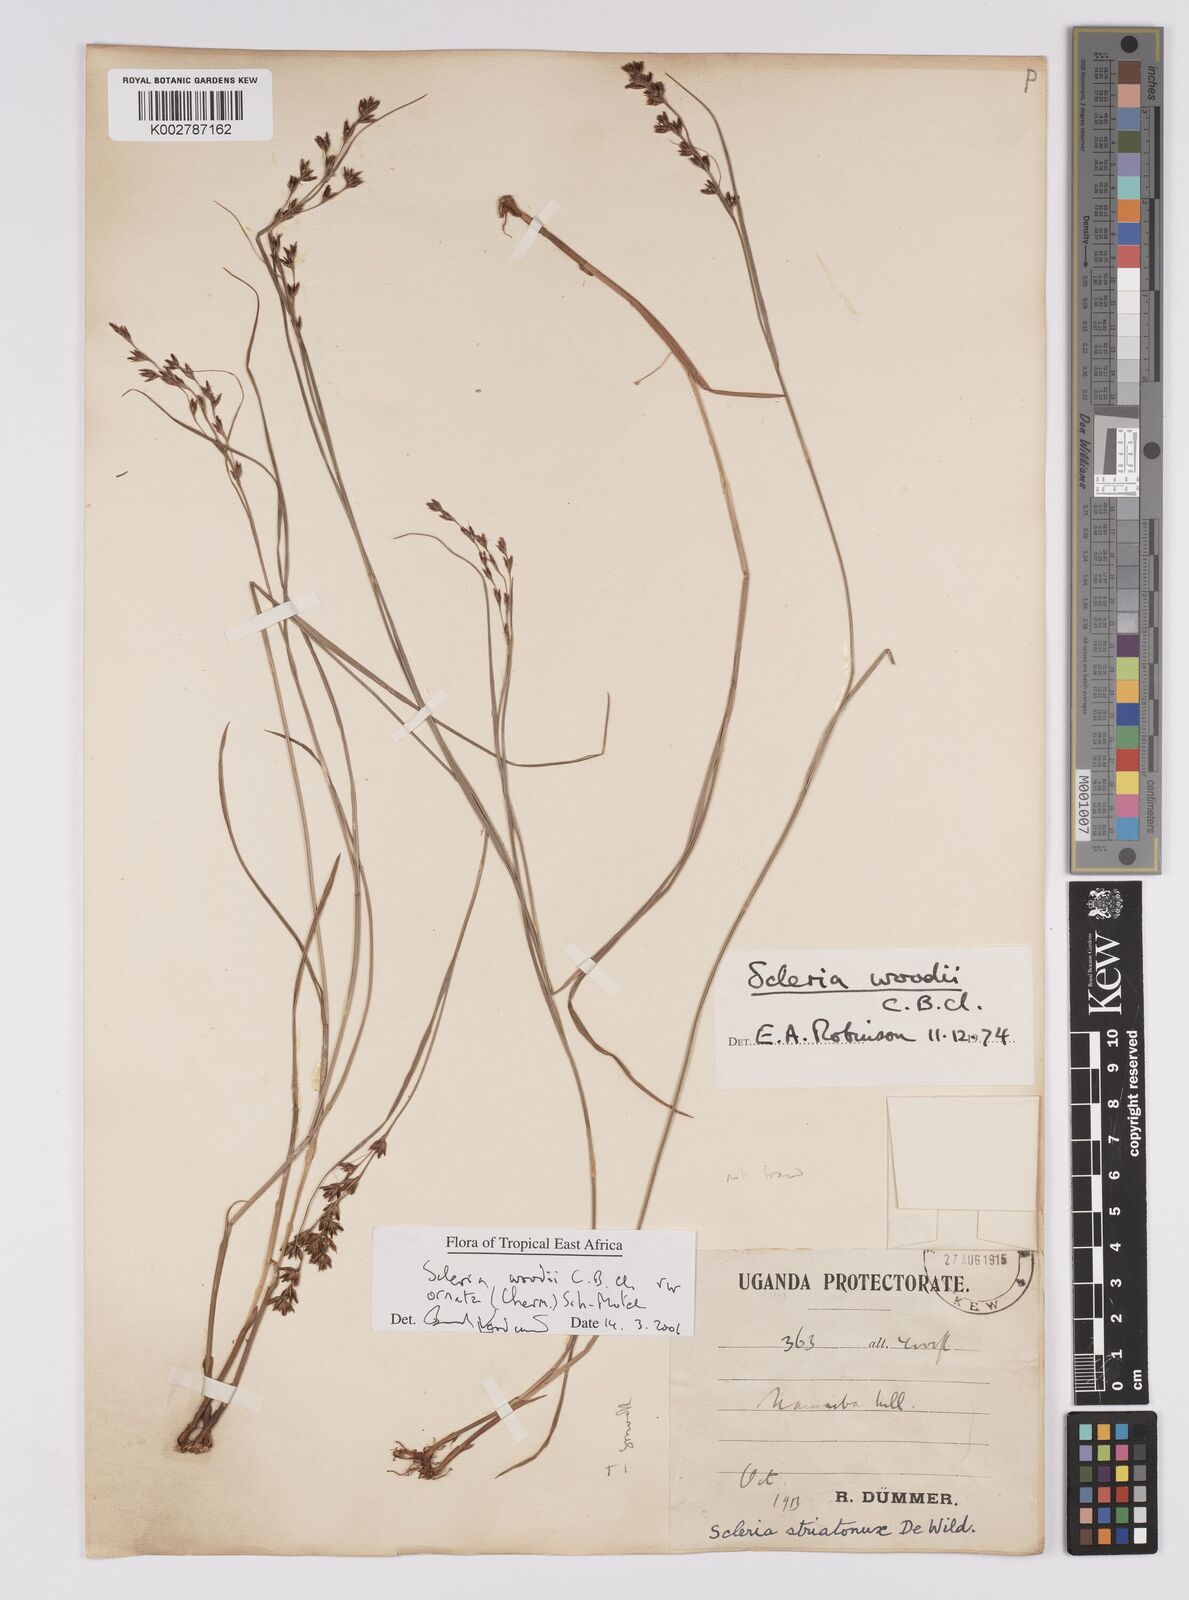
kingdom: Plantae
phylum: Tracheophyta
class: Liliopsida
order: Poales
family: Cyperaceae
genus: Scleria
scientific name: Scleria woodii
